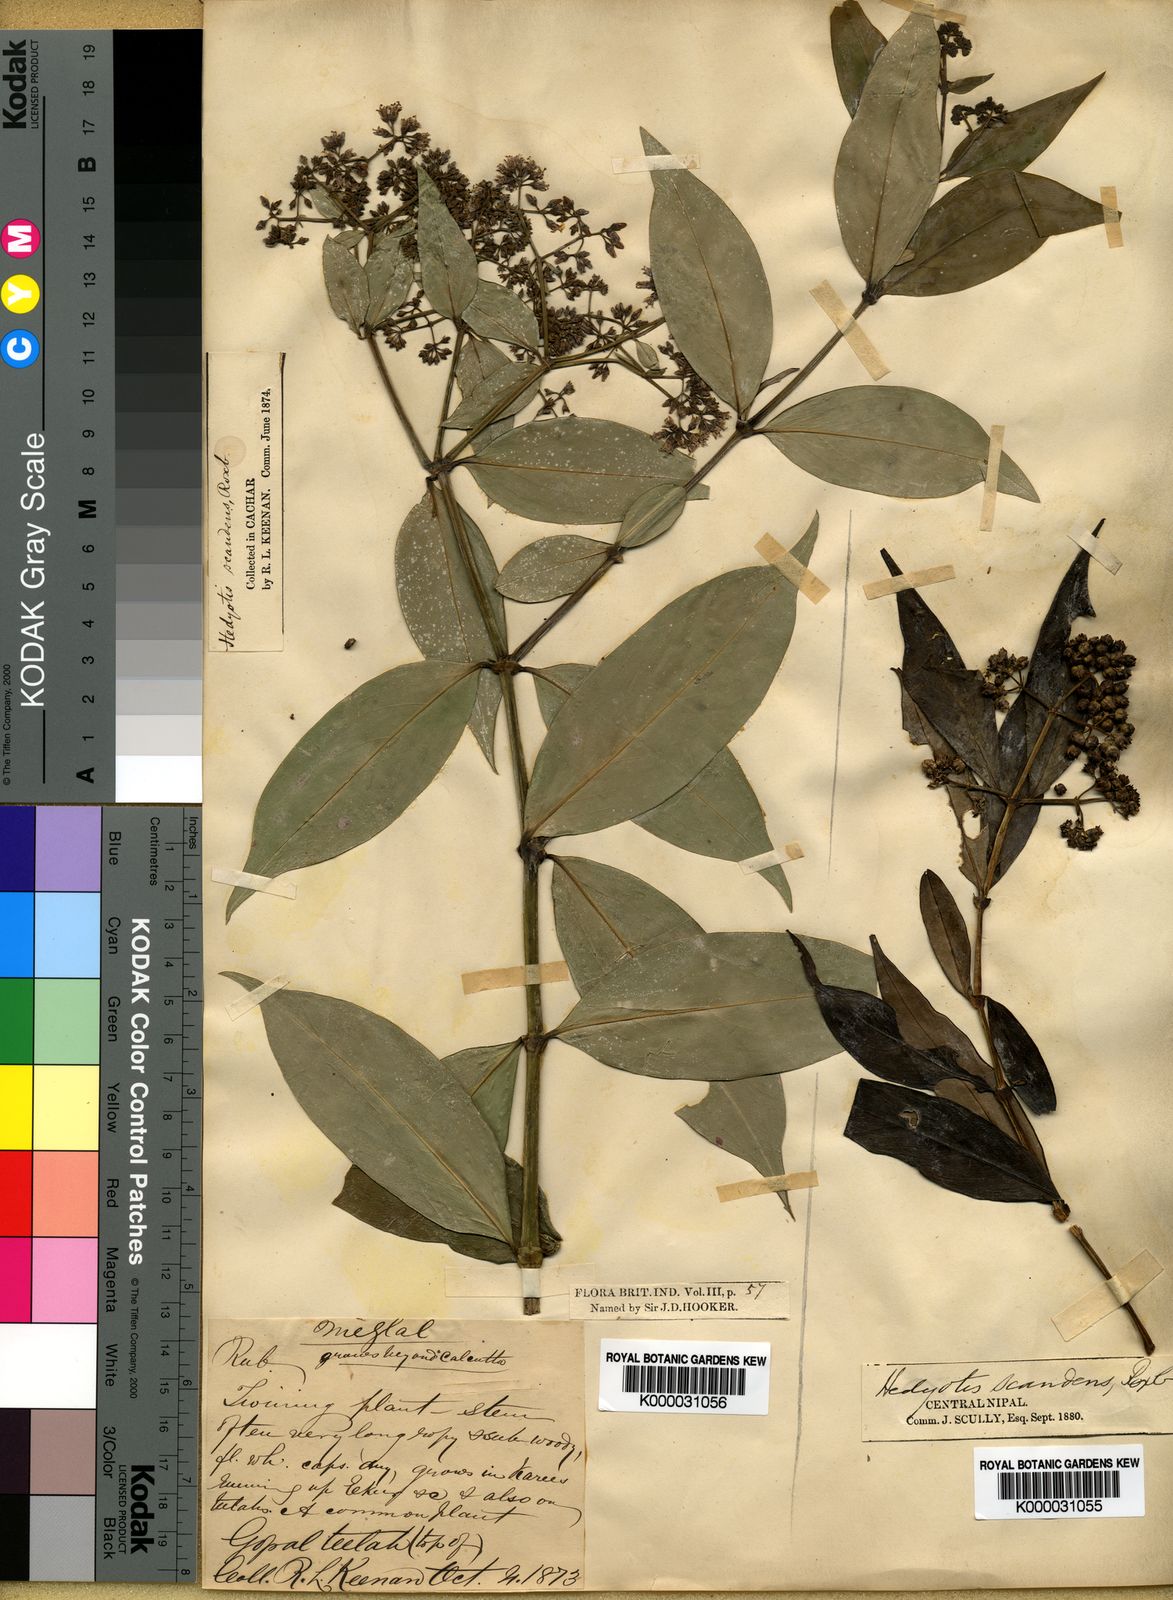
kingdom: Plantae
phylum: Tracheophyta
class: Magnoliopsida
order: Gentianales
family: Rubiaceae
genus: Dimetia
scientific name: Dimetia scandens
